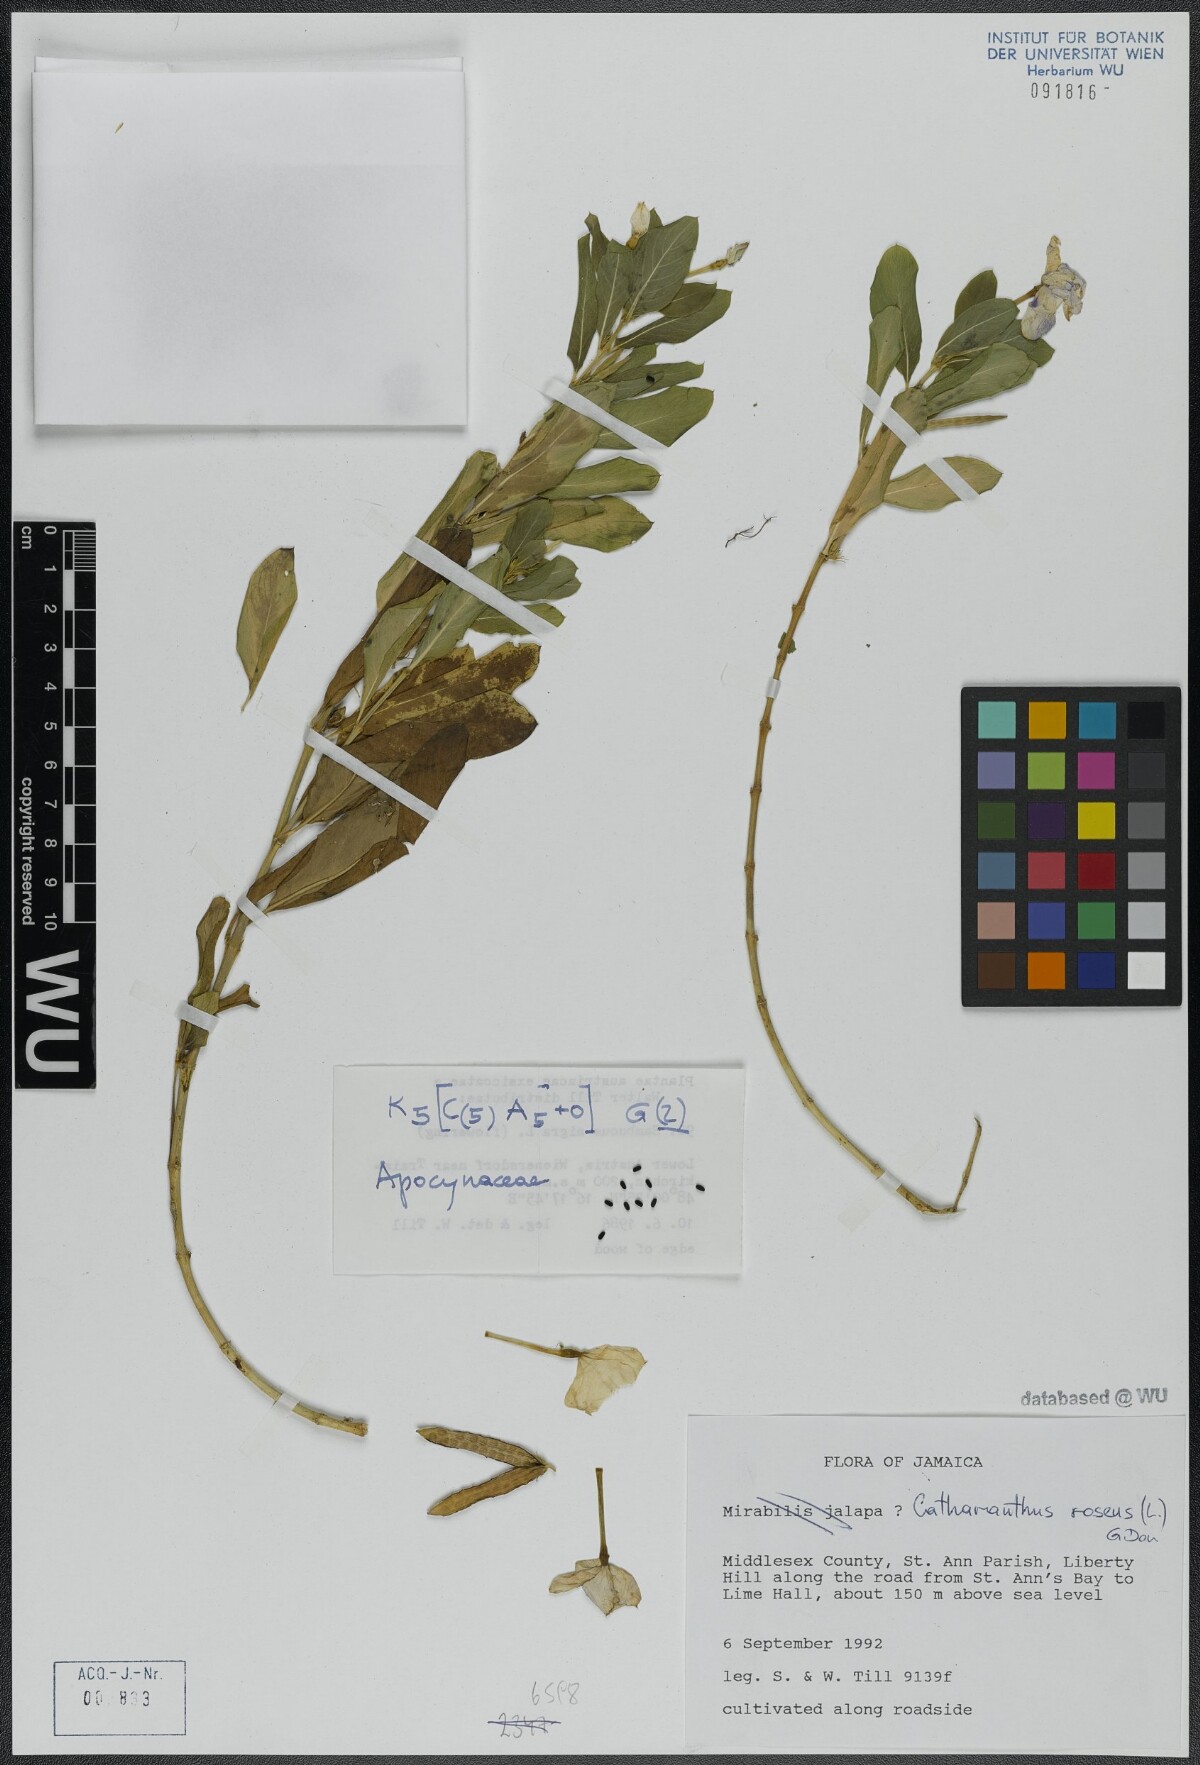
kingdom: Plantae
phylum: Tracheophyta
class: Magnoliopsida
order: Gentianales
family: Apocynaceae
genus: Catharanthus
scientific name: Catharanthus roseus
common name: Madagascar periwinkle
